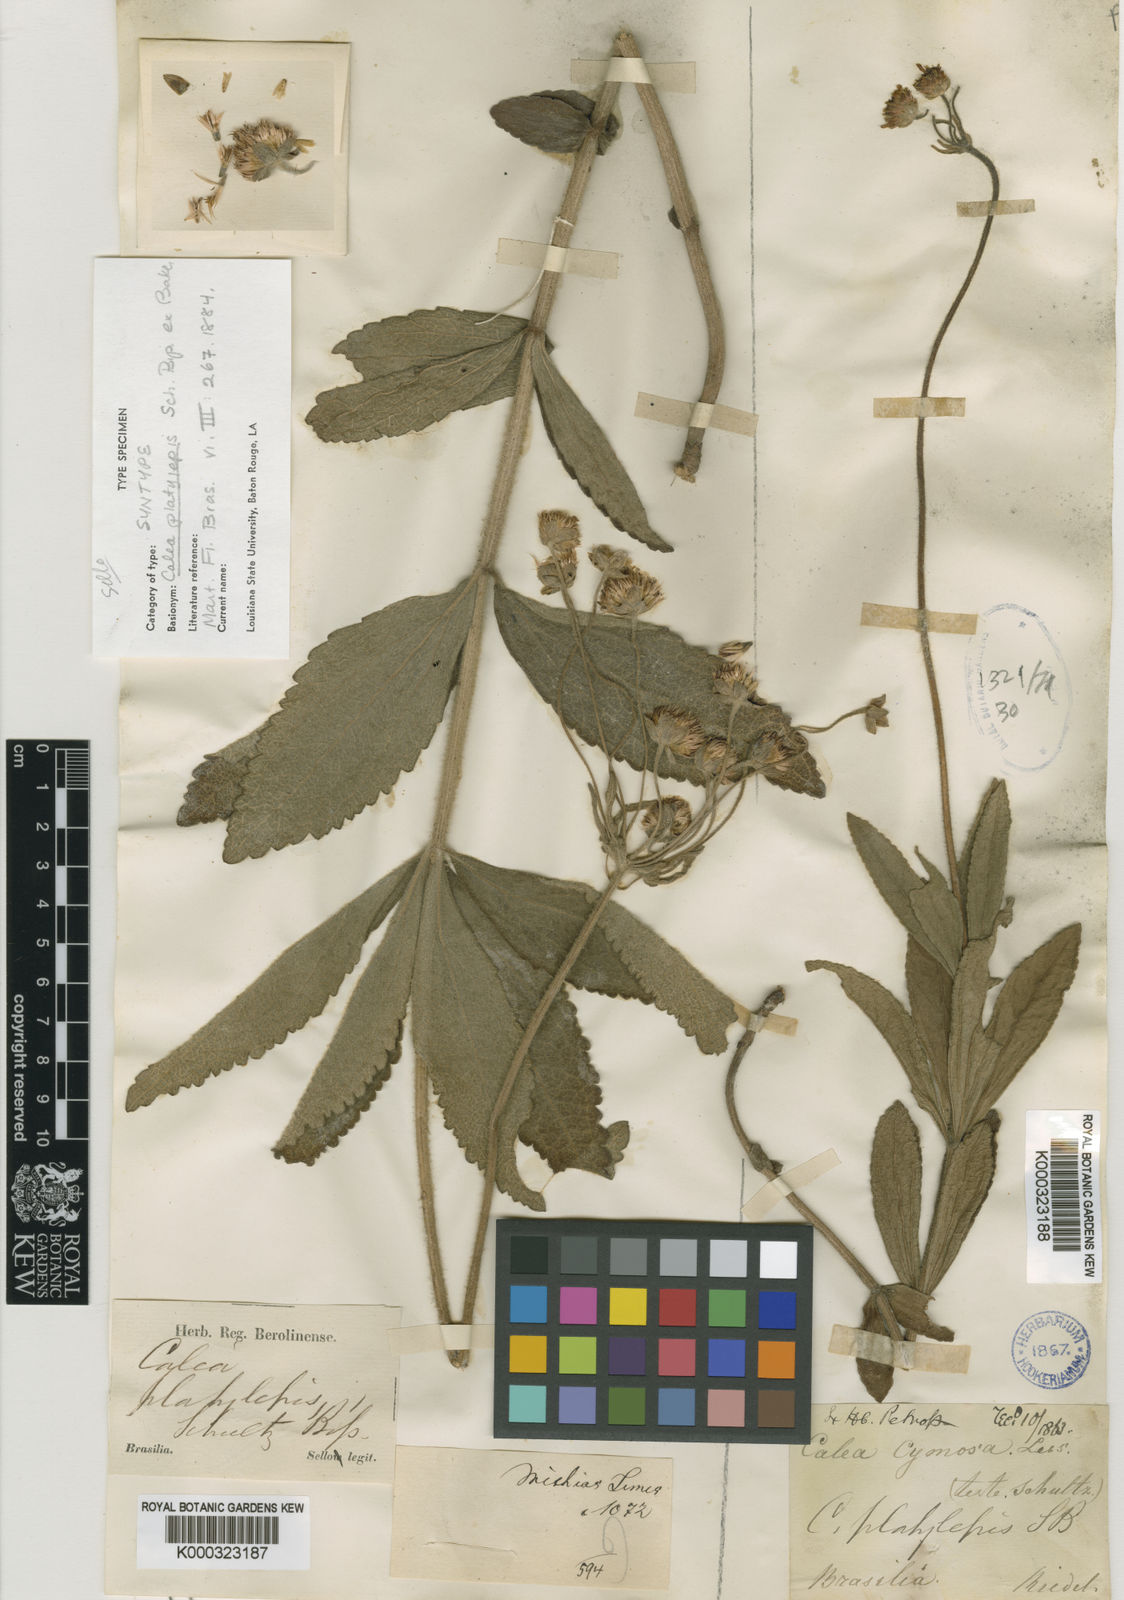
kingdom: Plantae
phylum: Tracheophyta
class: Magnoliopsida
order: Asterales
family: Asteraceae
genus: Calea
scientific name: Calea mediterranea
